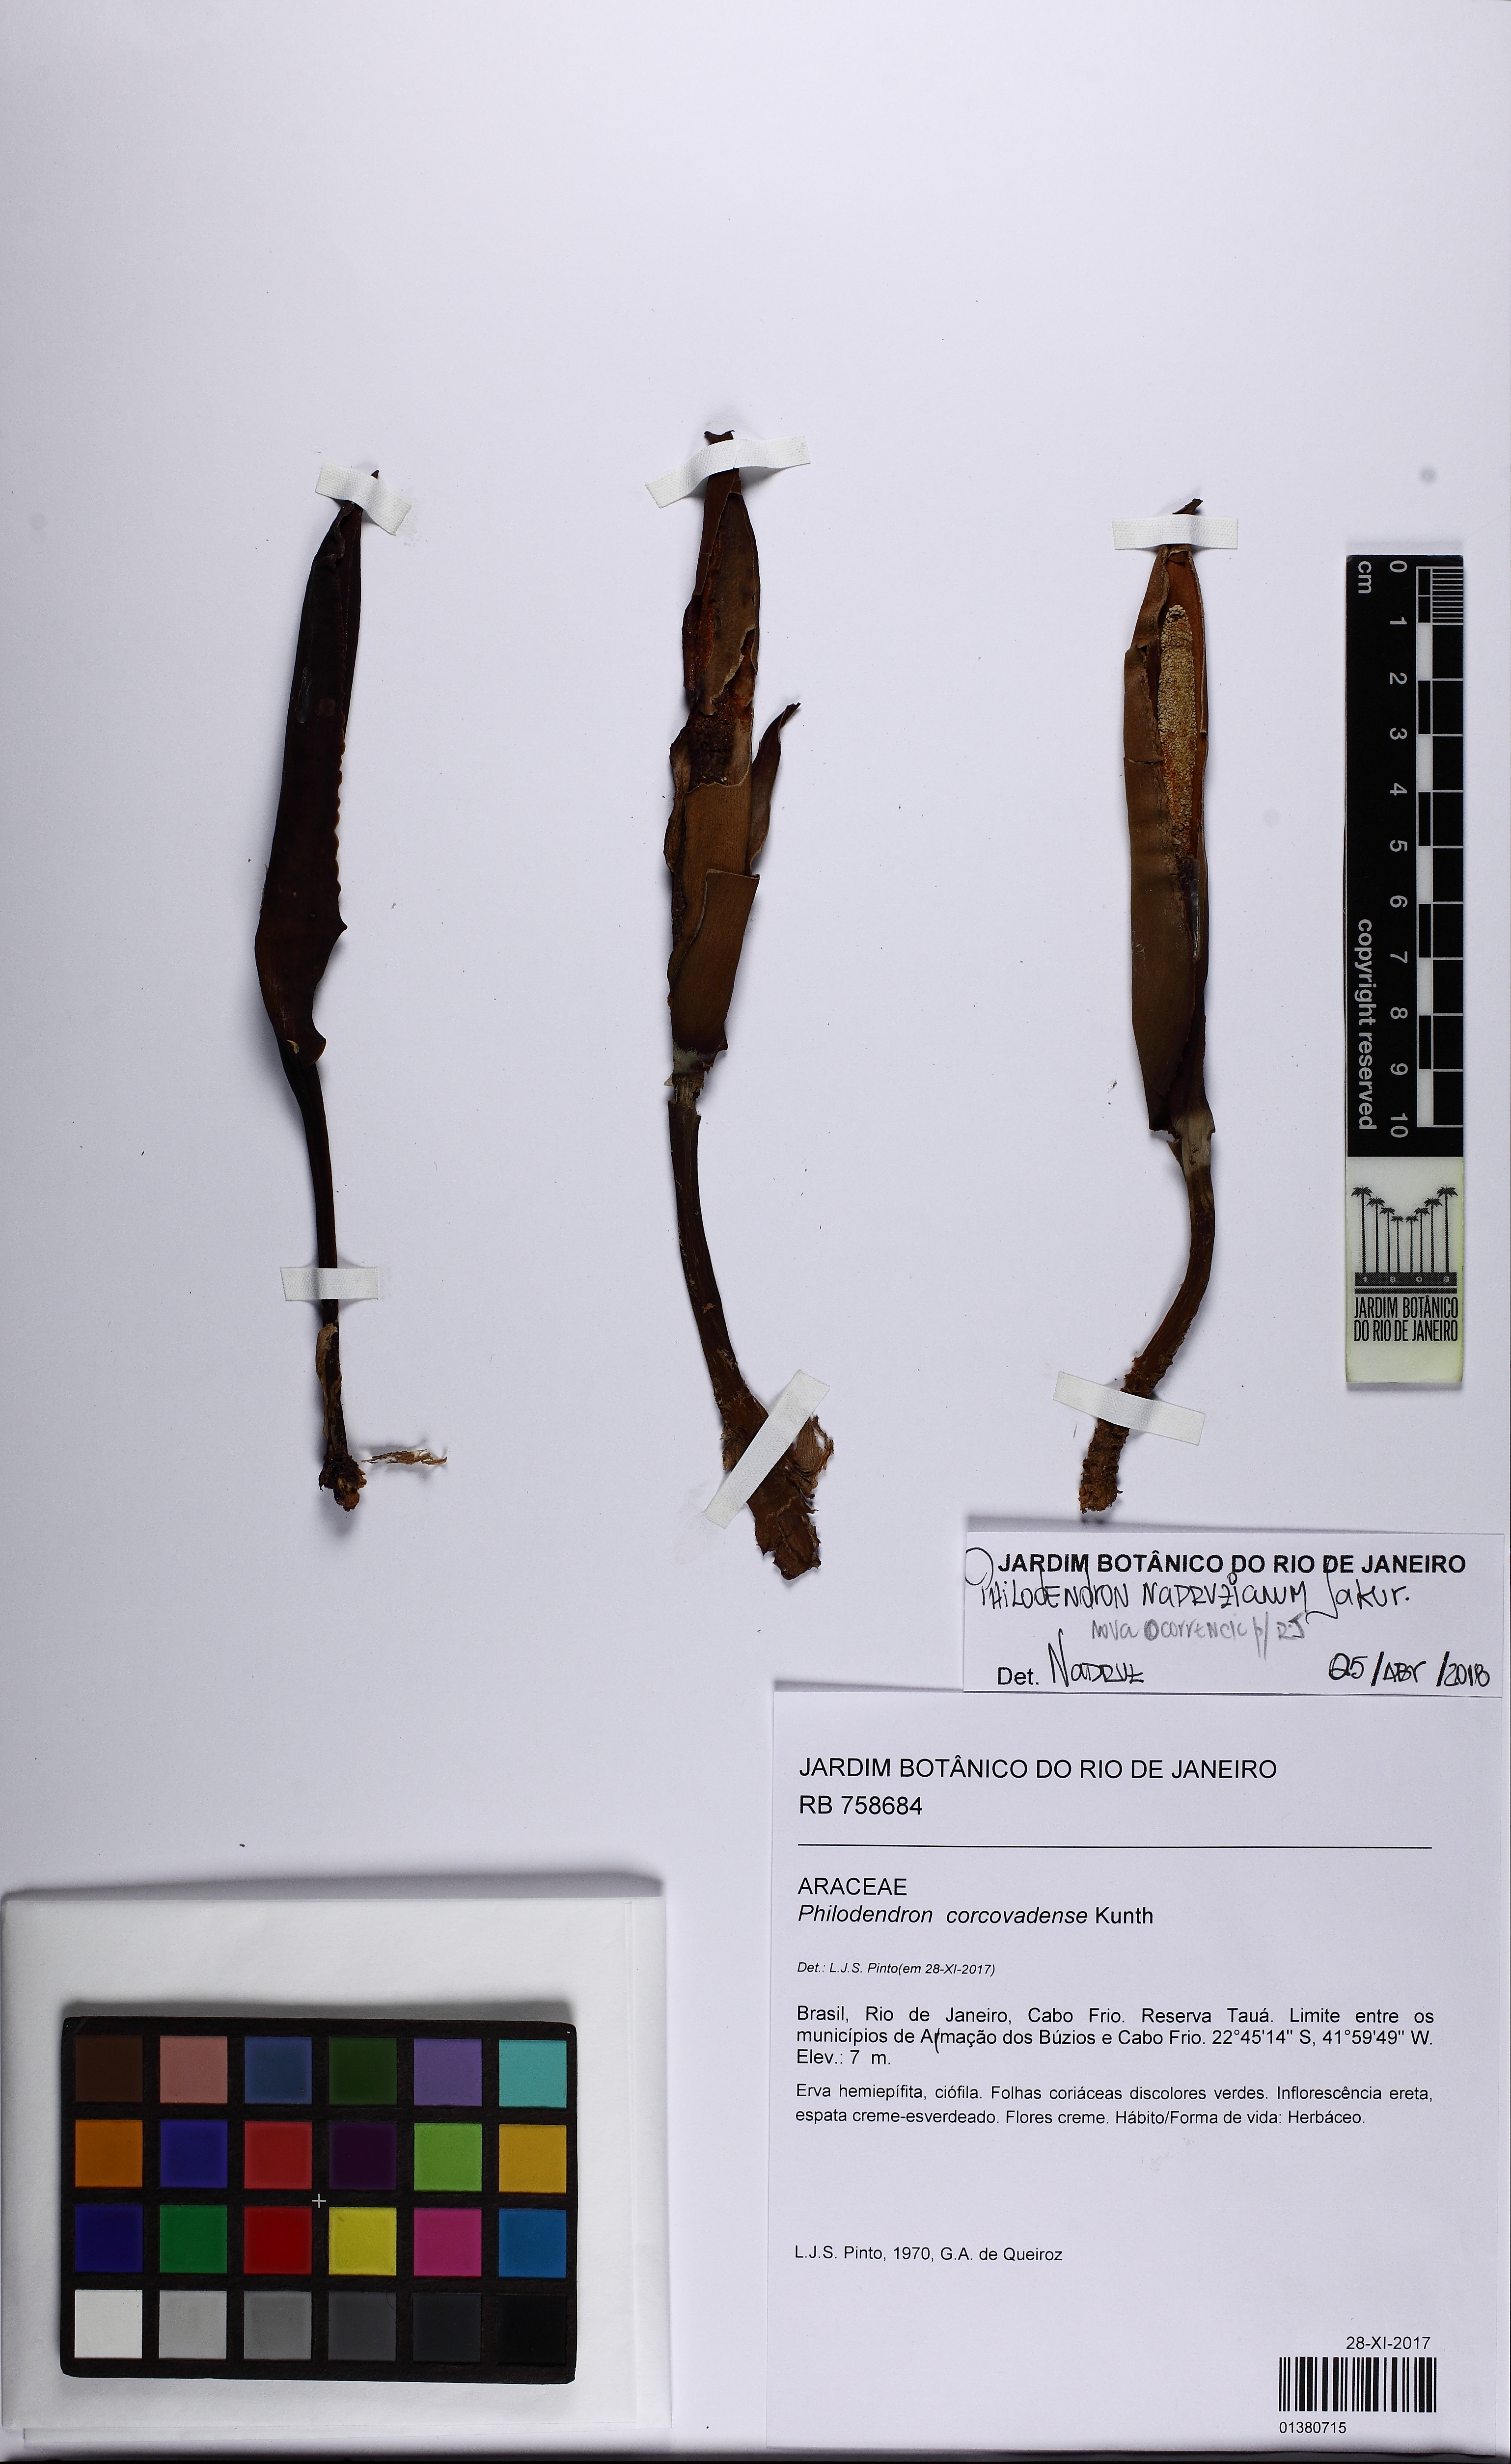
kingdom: Plantae
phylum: Tracheophyta
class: Liliopsida
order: Alismatales
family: Araceae
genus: Philodendron
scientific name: Philodendron nadruzianum
